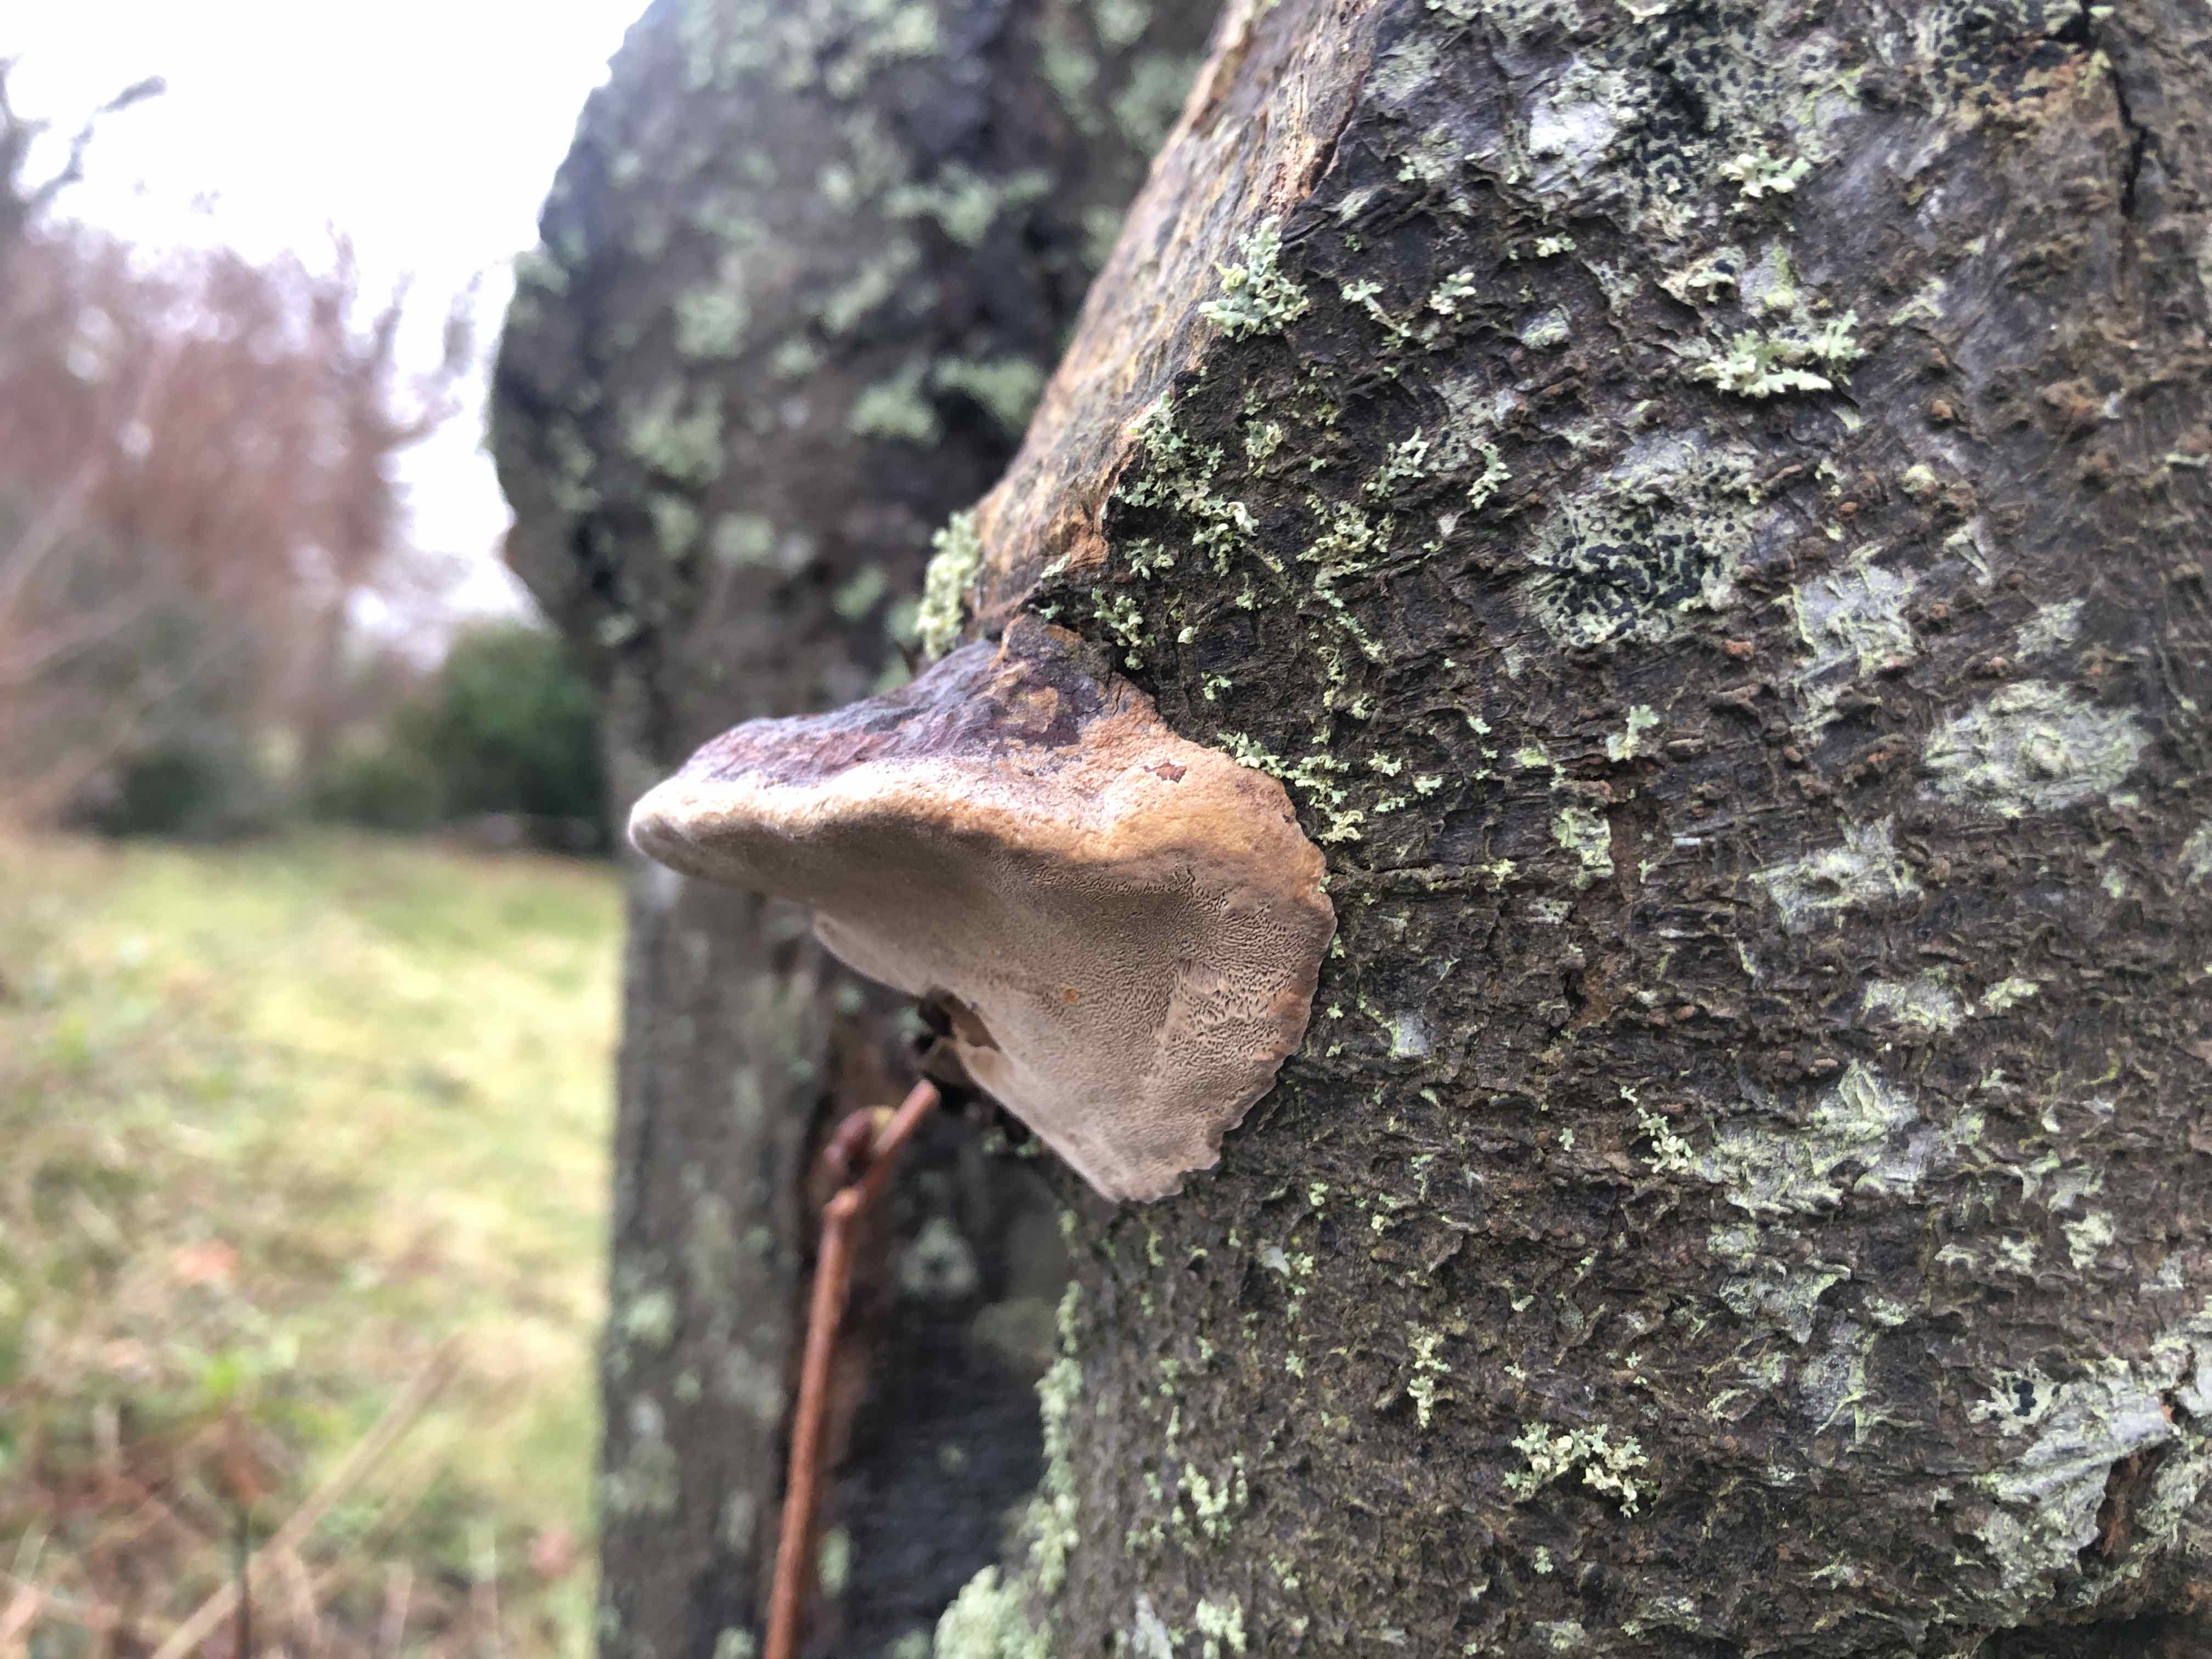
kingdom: Fungi
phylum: Basidiomycota
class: Agaricomycetes
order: Hymenochaetales
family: Hymenochaetaceae
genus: Phellinus
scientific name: Phellinus pomaceus
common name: blomme-ildporesvamp
